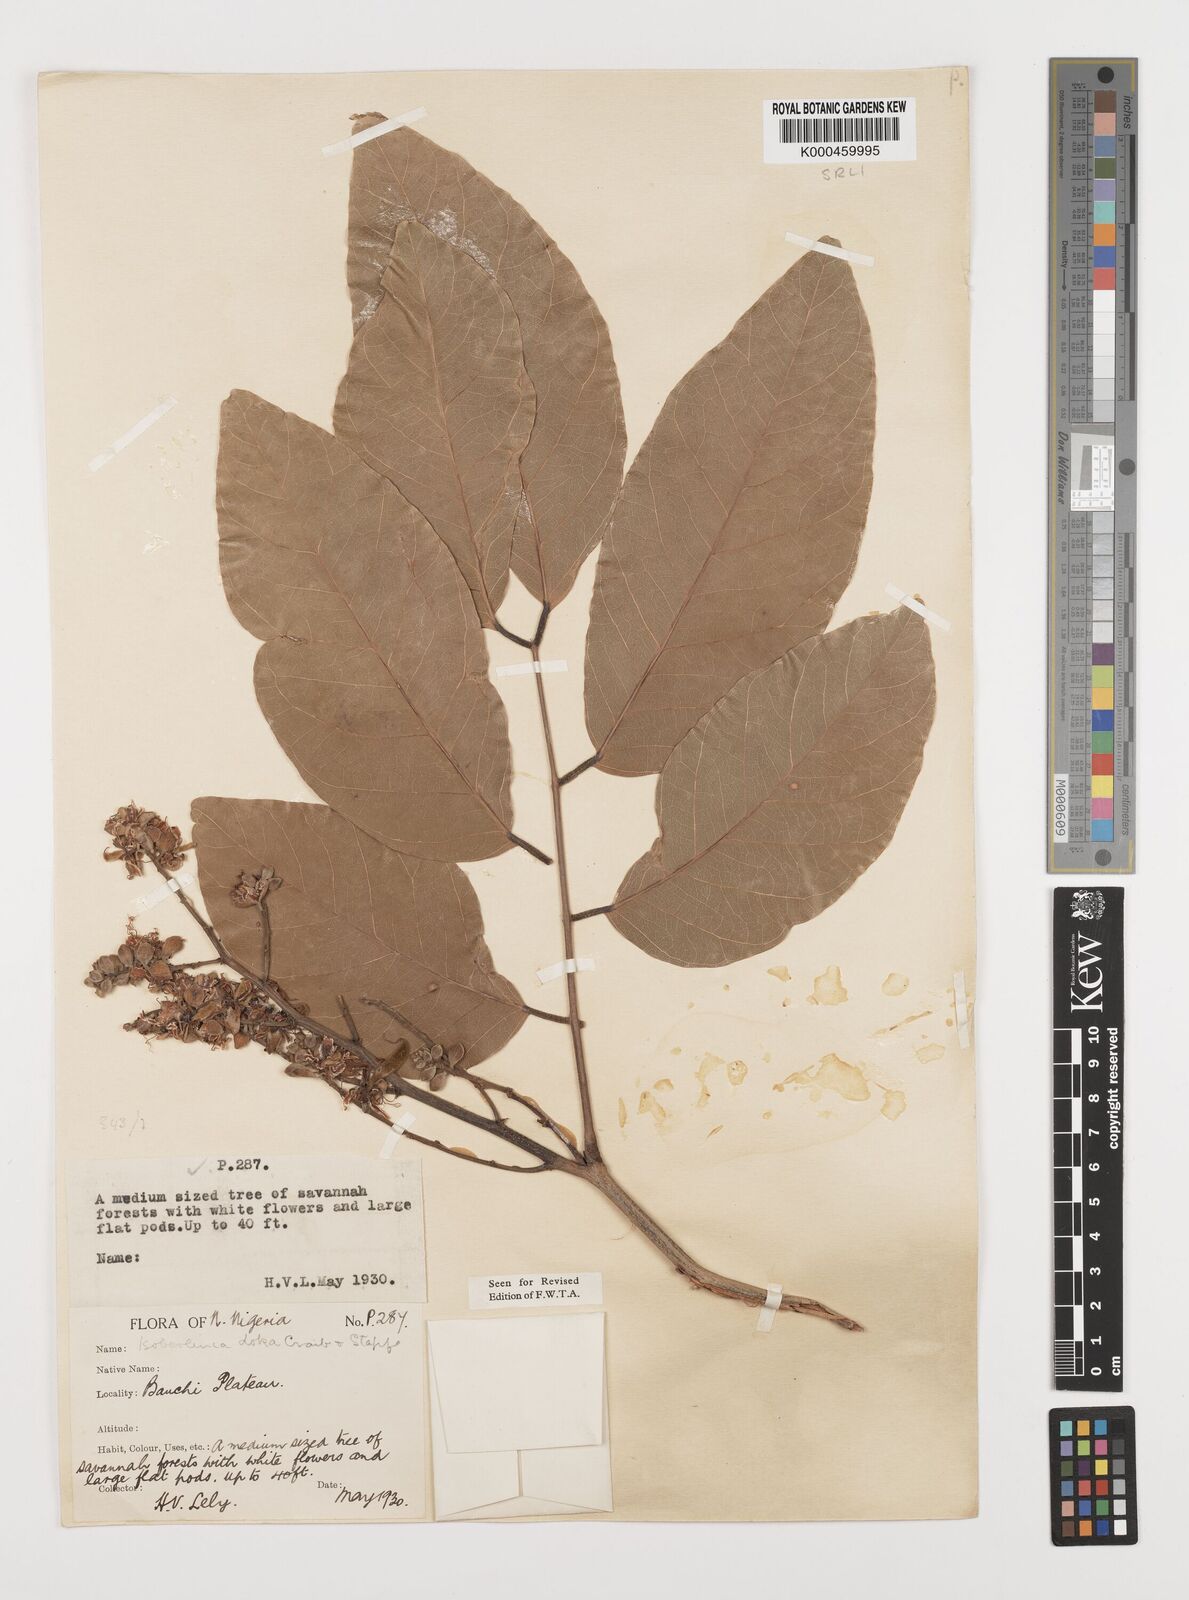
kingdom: Plantae
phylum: Tracheophyta
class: Magnoliopsida
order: Fabales
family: Fabaceae
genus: Isoberlinia
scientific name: Isoberlinia doka
